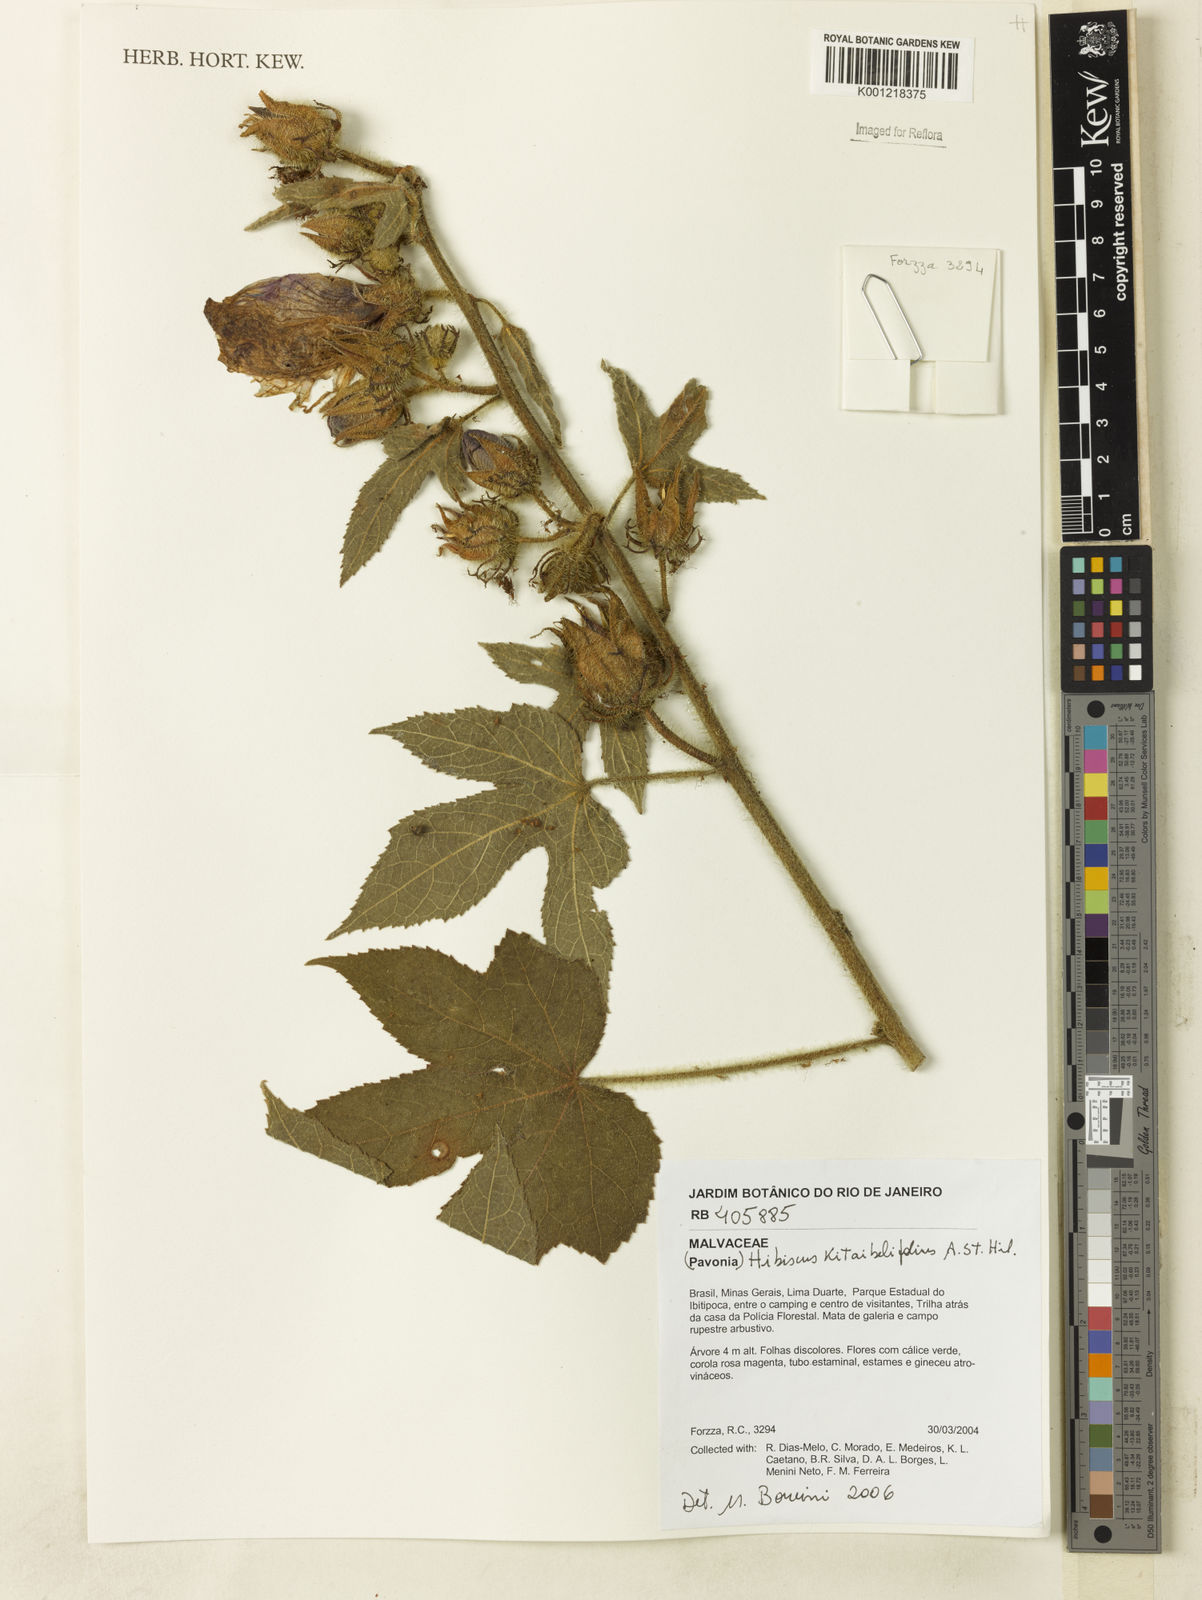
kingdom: Plantae
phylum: Tracheophyta
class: Magnoliopsida
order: Malvales
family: Malvaceae
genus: Hibiscus
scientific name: Hibiscus kitaibelifolius
